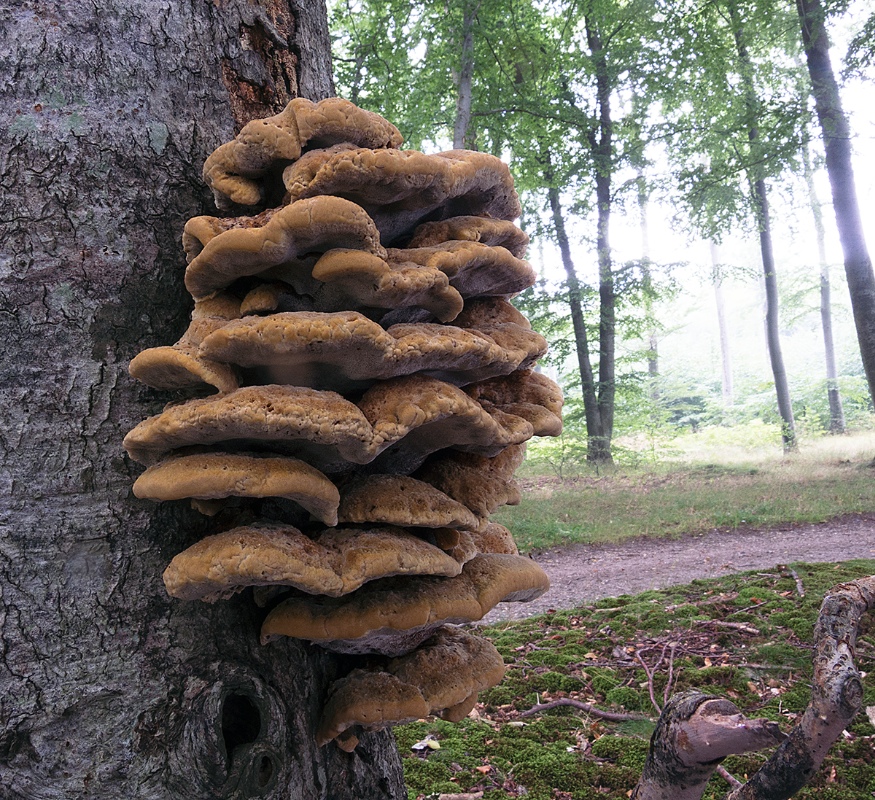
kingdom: Fungi
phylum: Basidiomycota
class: Agaricomycetes
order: Hymenochaetales
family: Hymenochaetaceae
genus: Inonotus
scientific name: Inonotus cuticularis
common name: kroghåret spejlporesvamp
